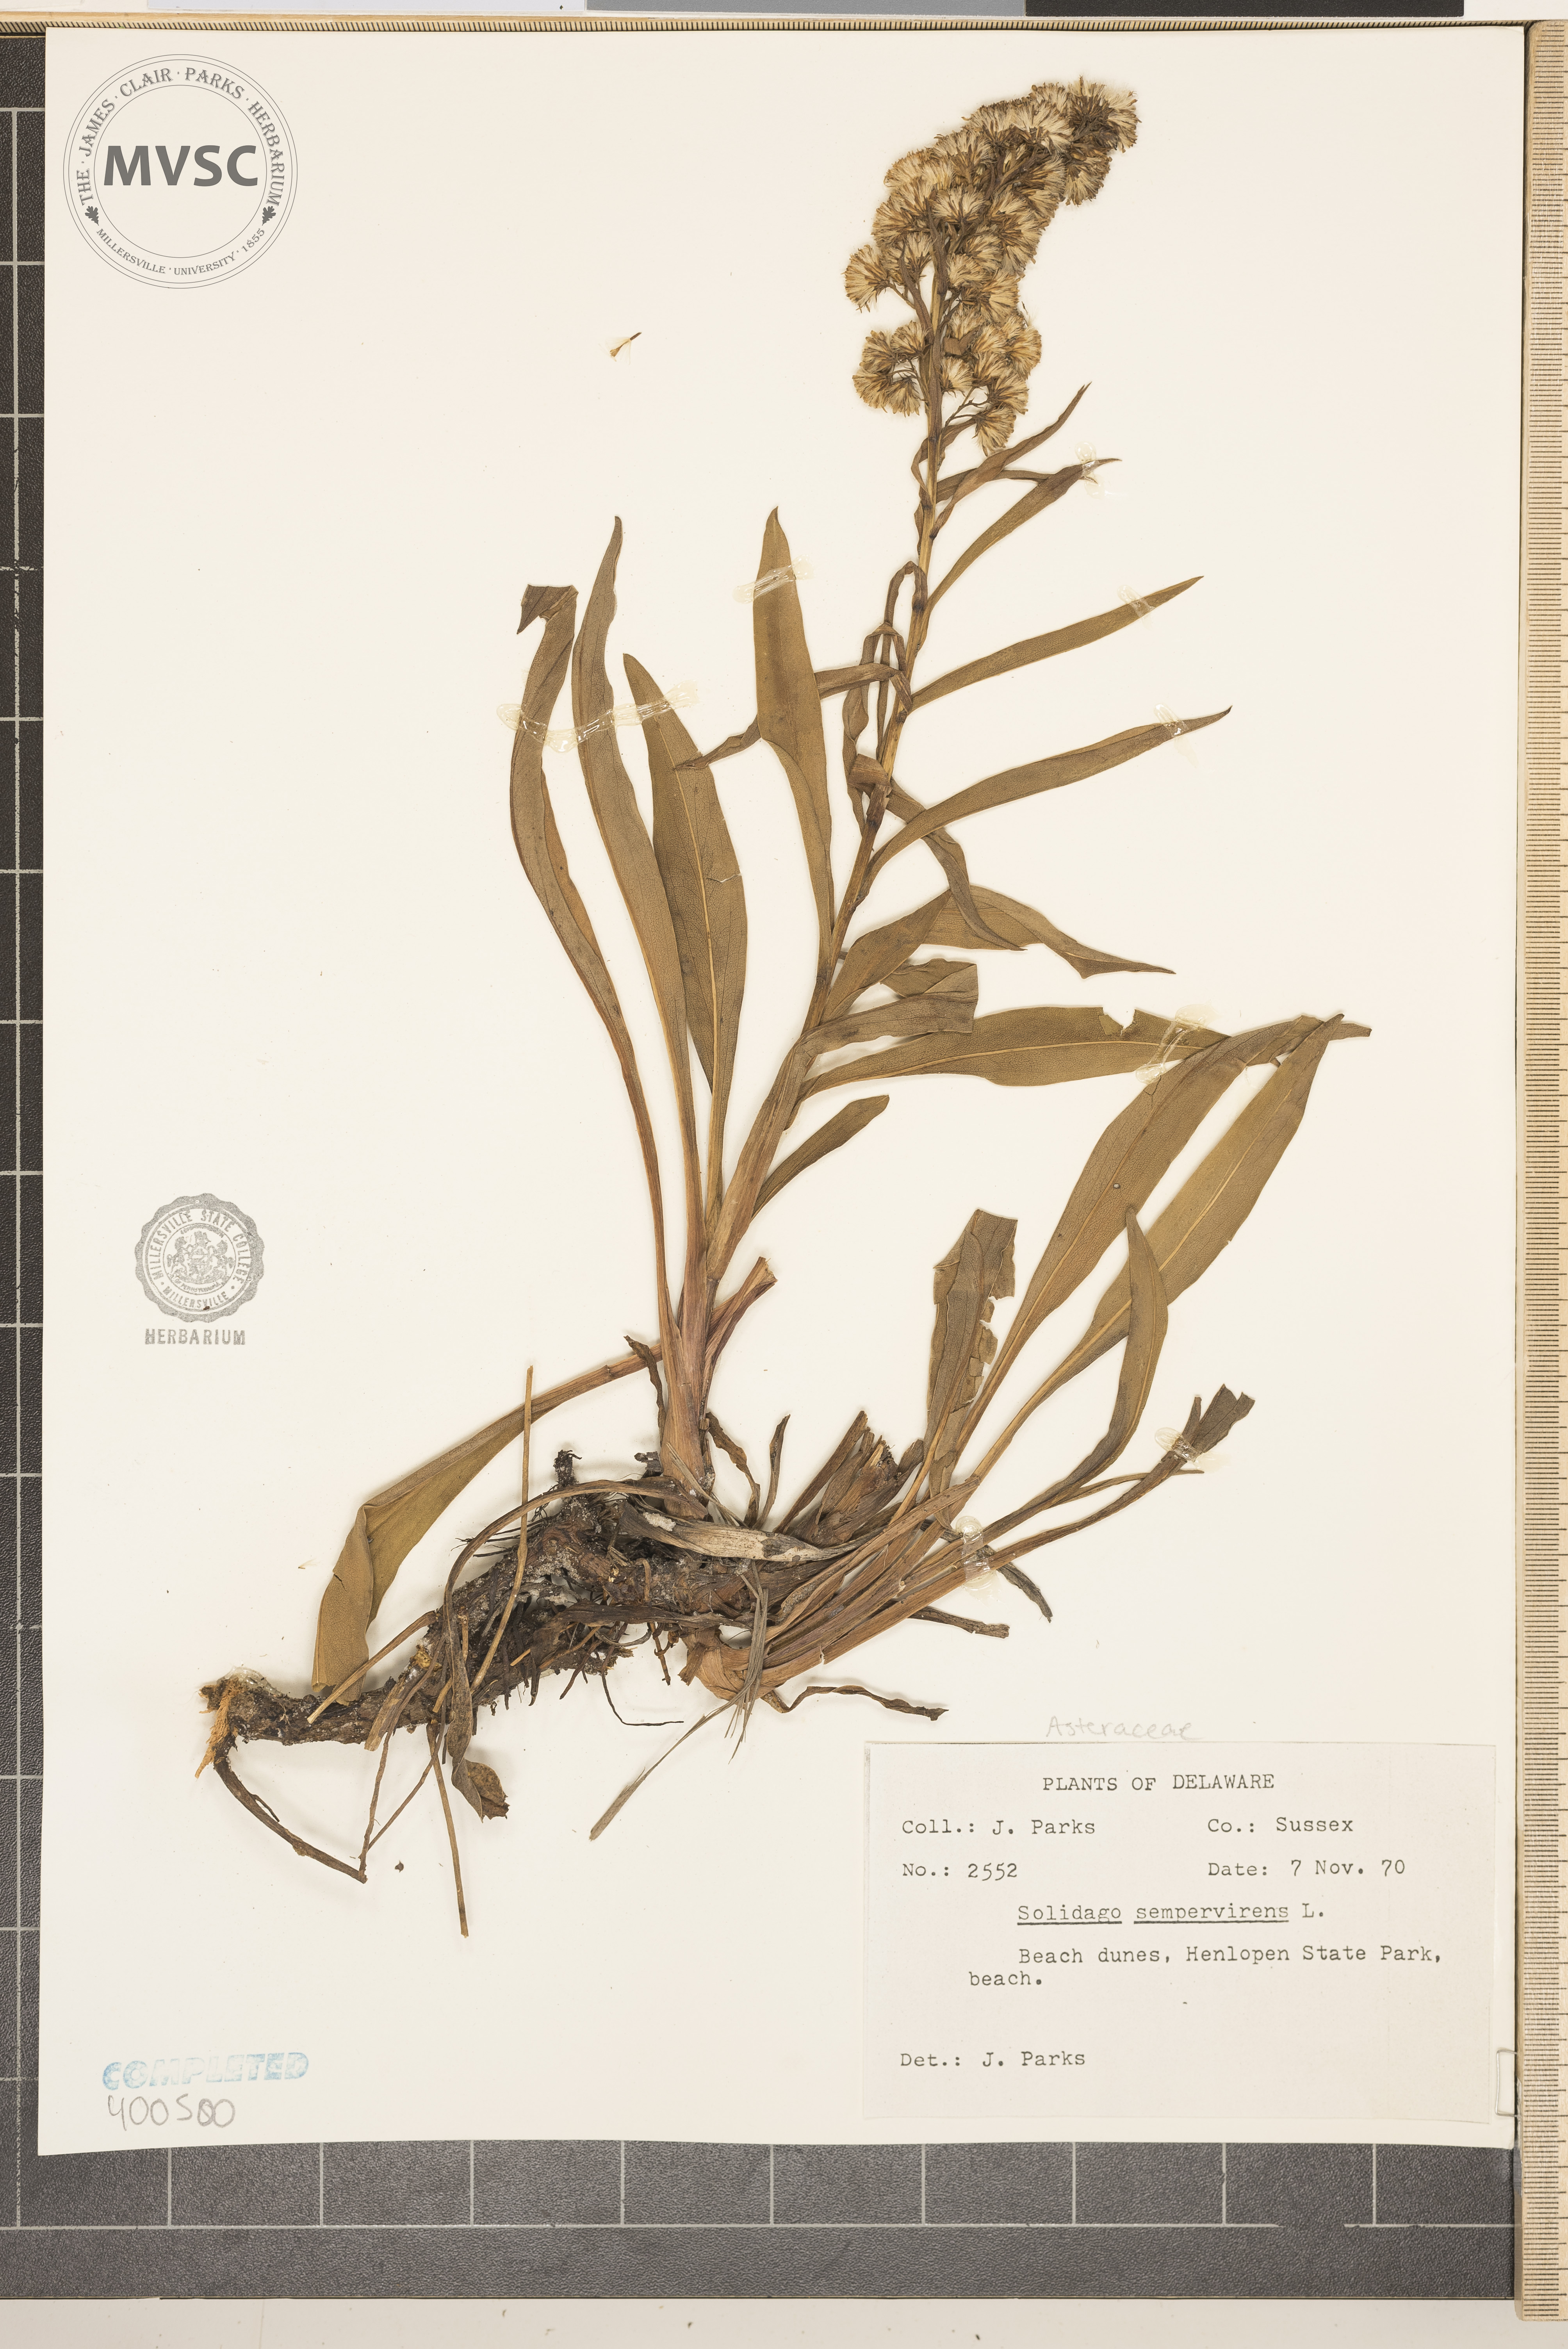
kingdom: Plantae
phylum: Tracheophyta
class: Magnoliopsida
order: Asterales
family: Asteraceae
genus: Solidago
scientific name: Solidago sempervirens
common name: goldenrod
